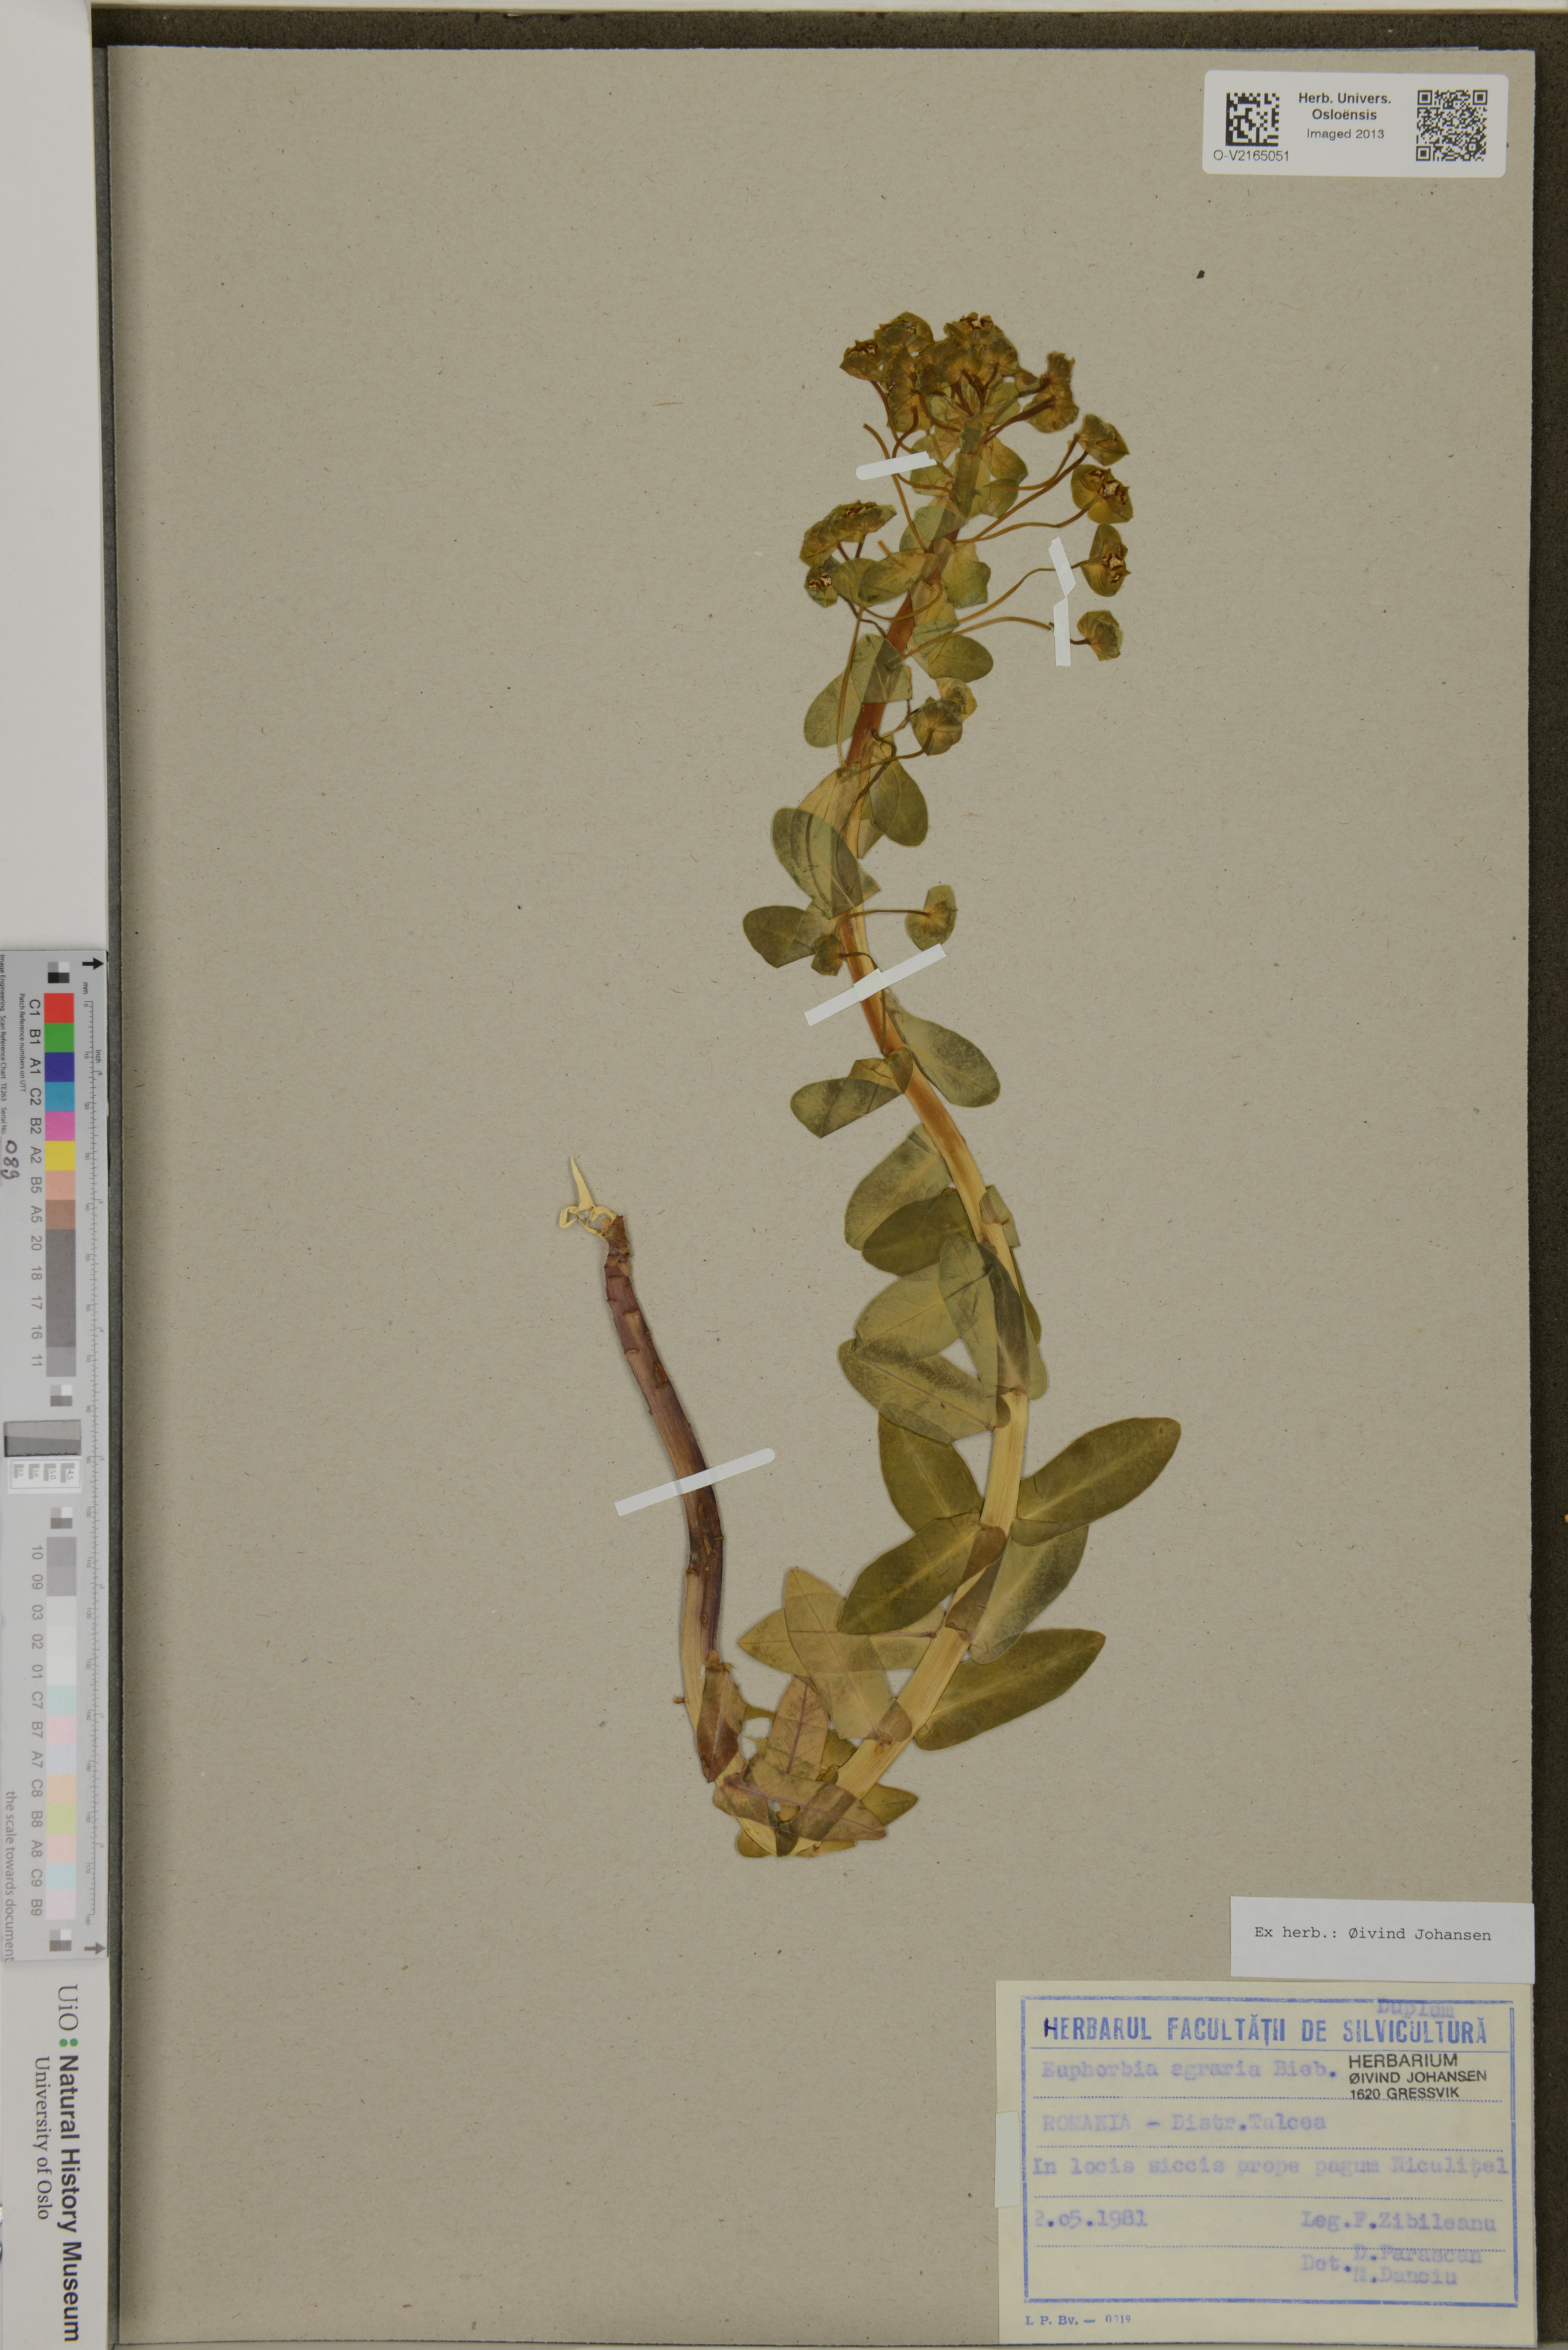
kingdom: Plantae
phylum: Tracheophyta
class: Magnoliopsida
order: Malpighiales
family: Euphorbiaceae
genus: Euphorbia
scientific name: Euphorbia agraria
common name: Urban spurge
